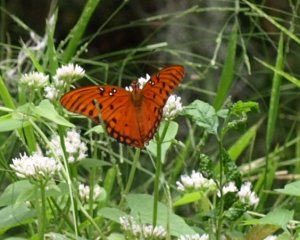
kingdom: Animalia
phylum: Arthropoda
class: Insecta
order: Lepidoptera
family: Nymphalidae
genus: Dione
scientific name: Dione vanillae
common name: Gulf Fritillary
